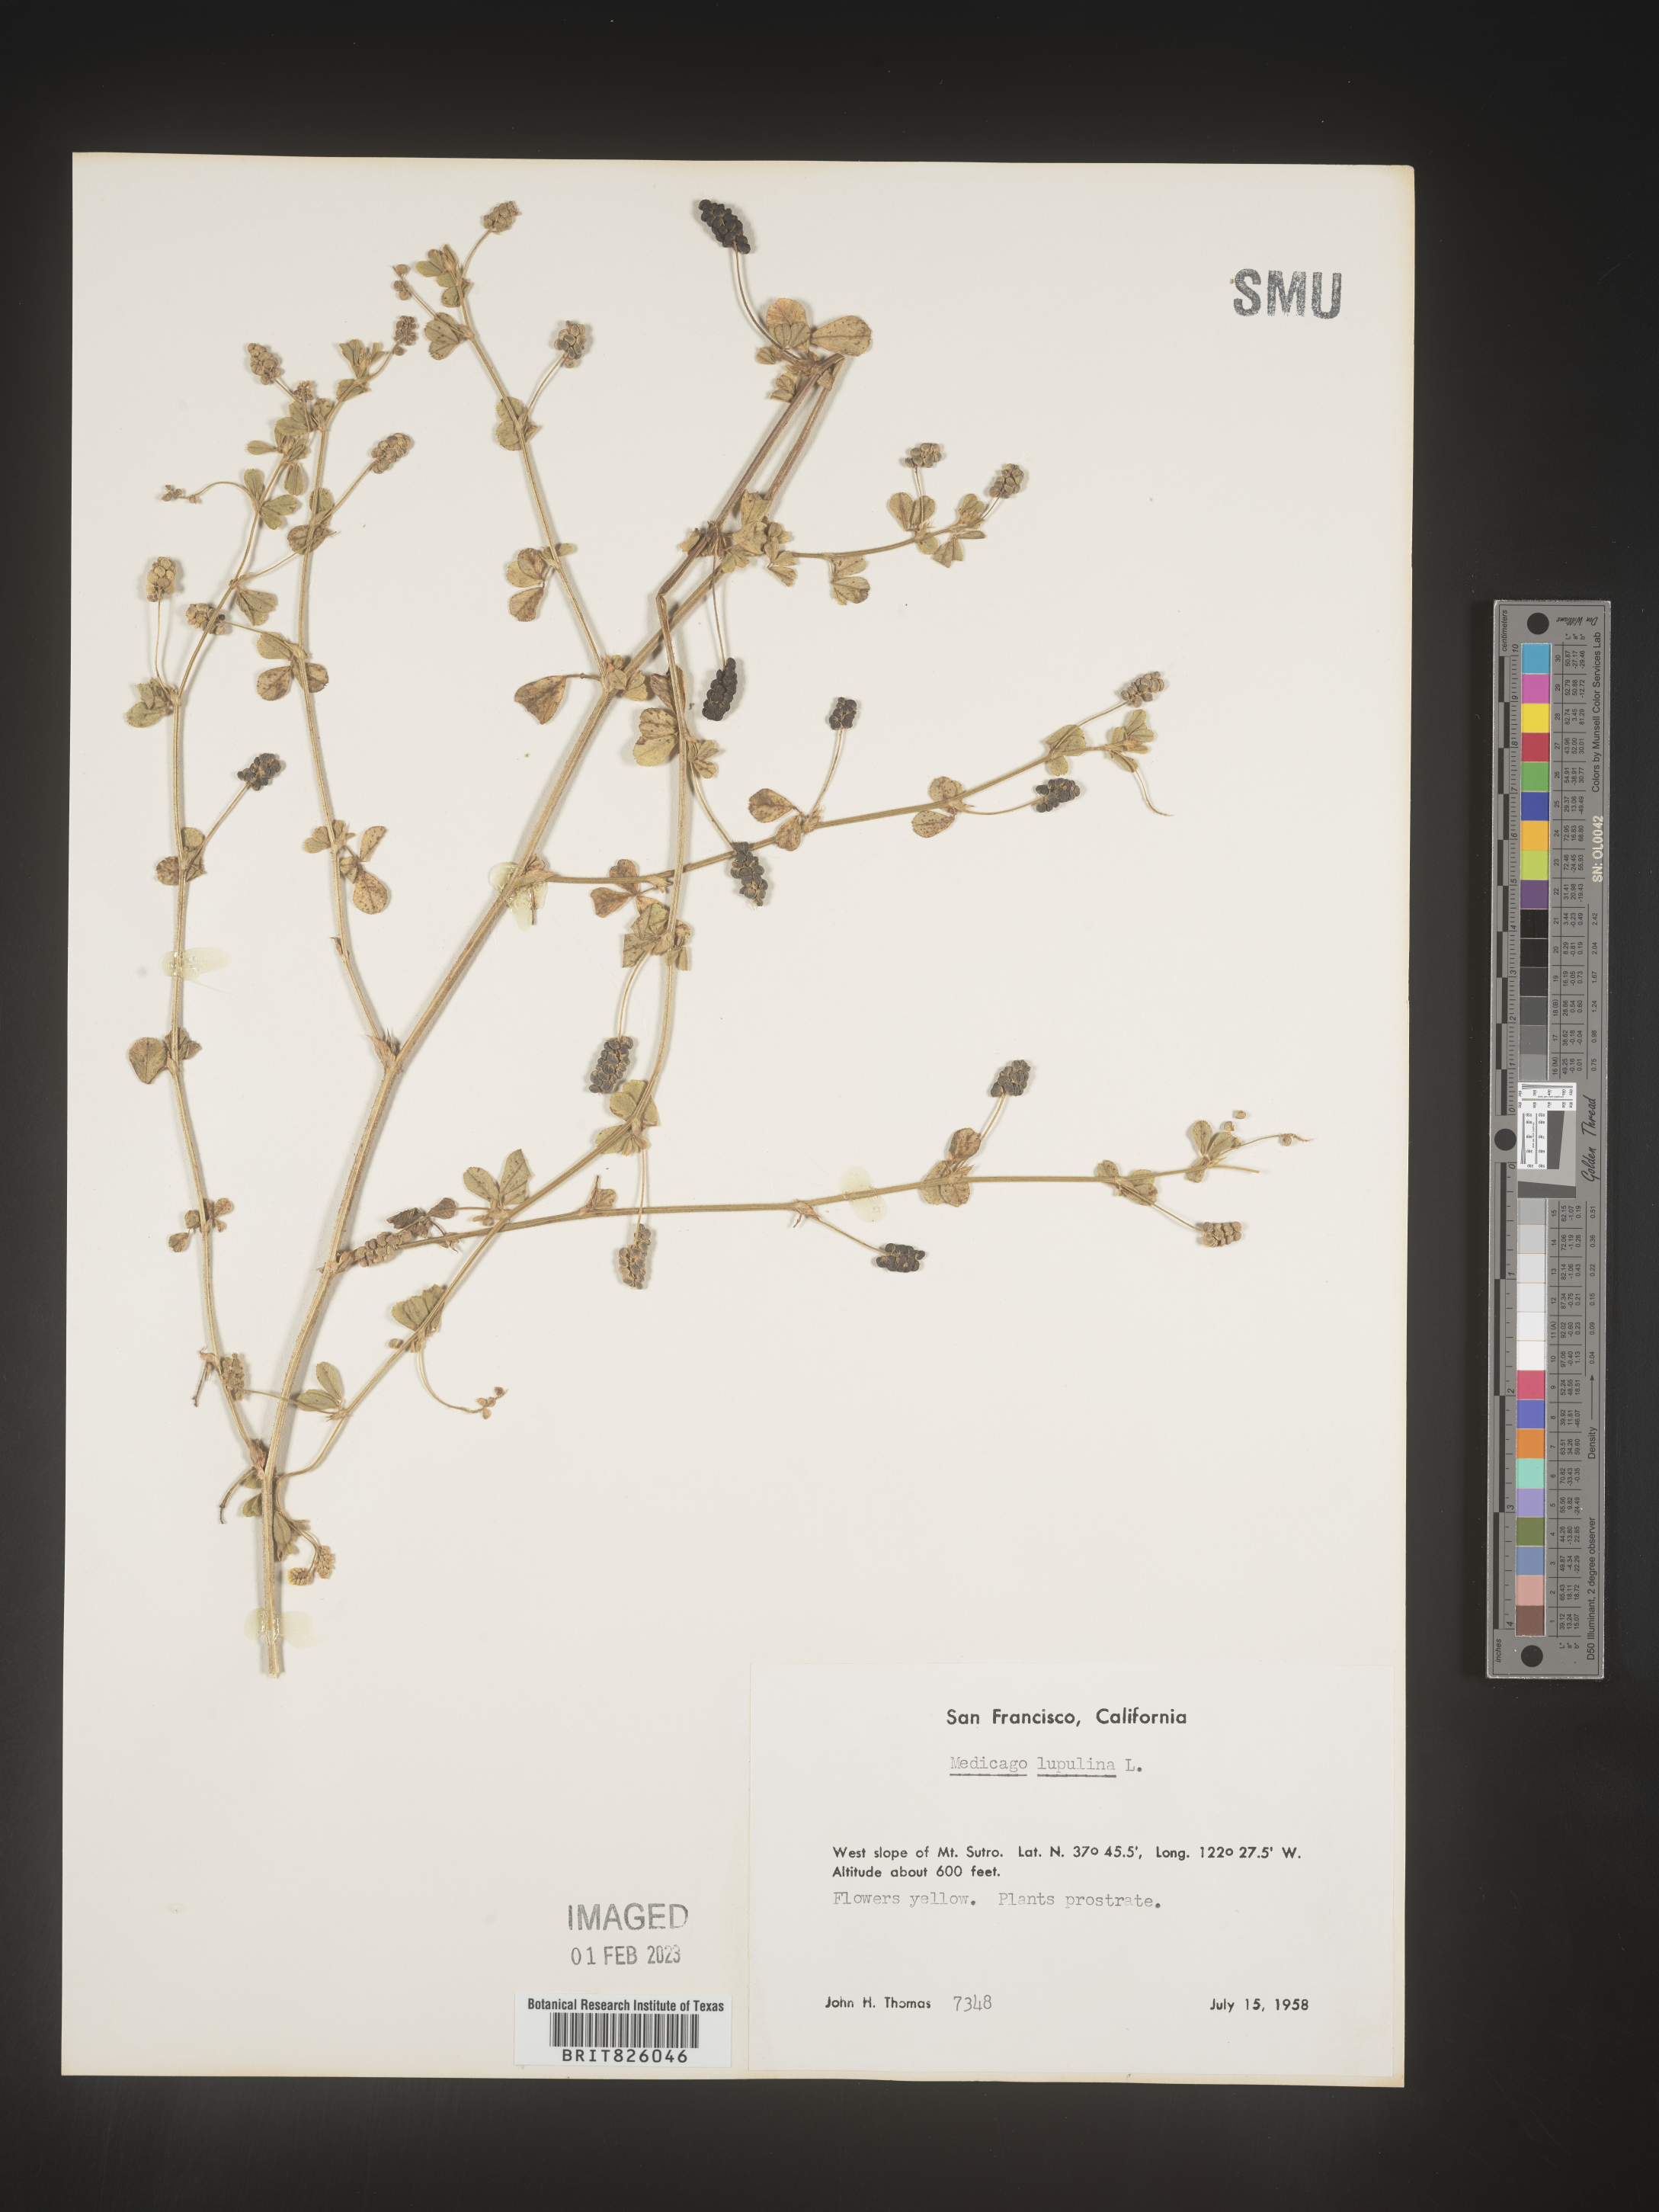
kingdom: Plantae
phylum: Tracheophyta
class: Magnoliopsida
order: Fabales
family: Fabaceae
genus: Medicago
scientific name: Medicago lupulina
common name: Black medick
